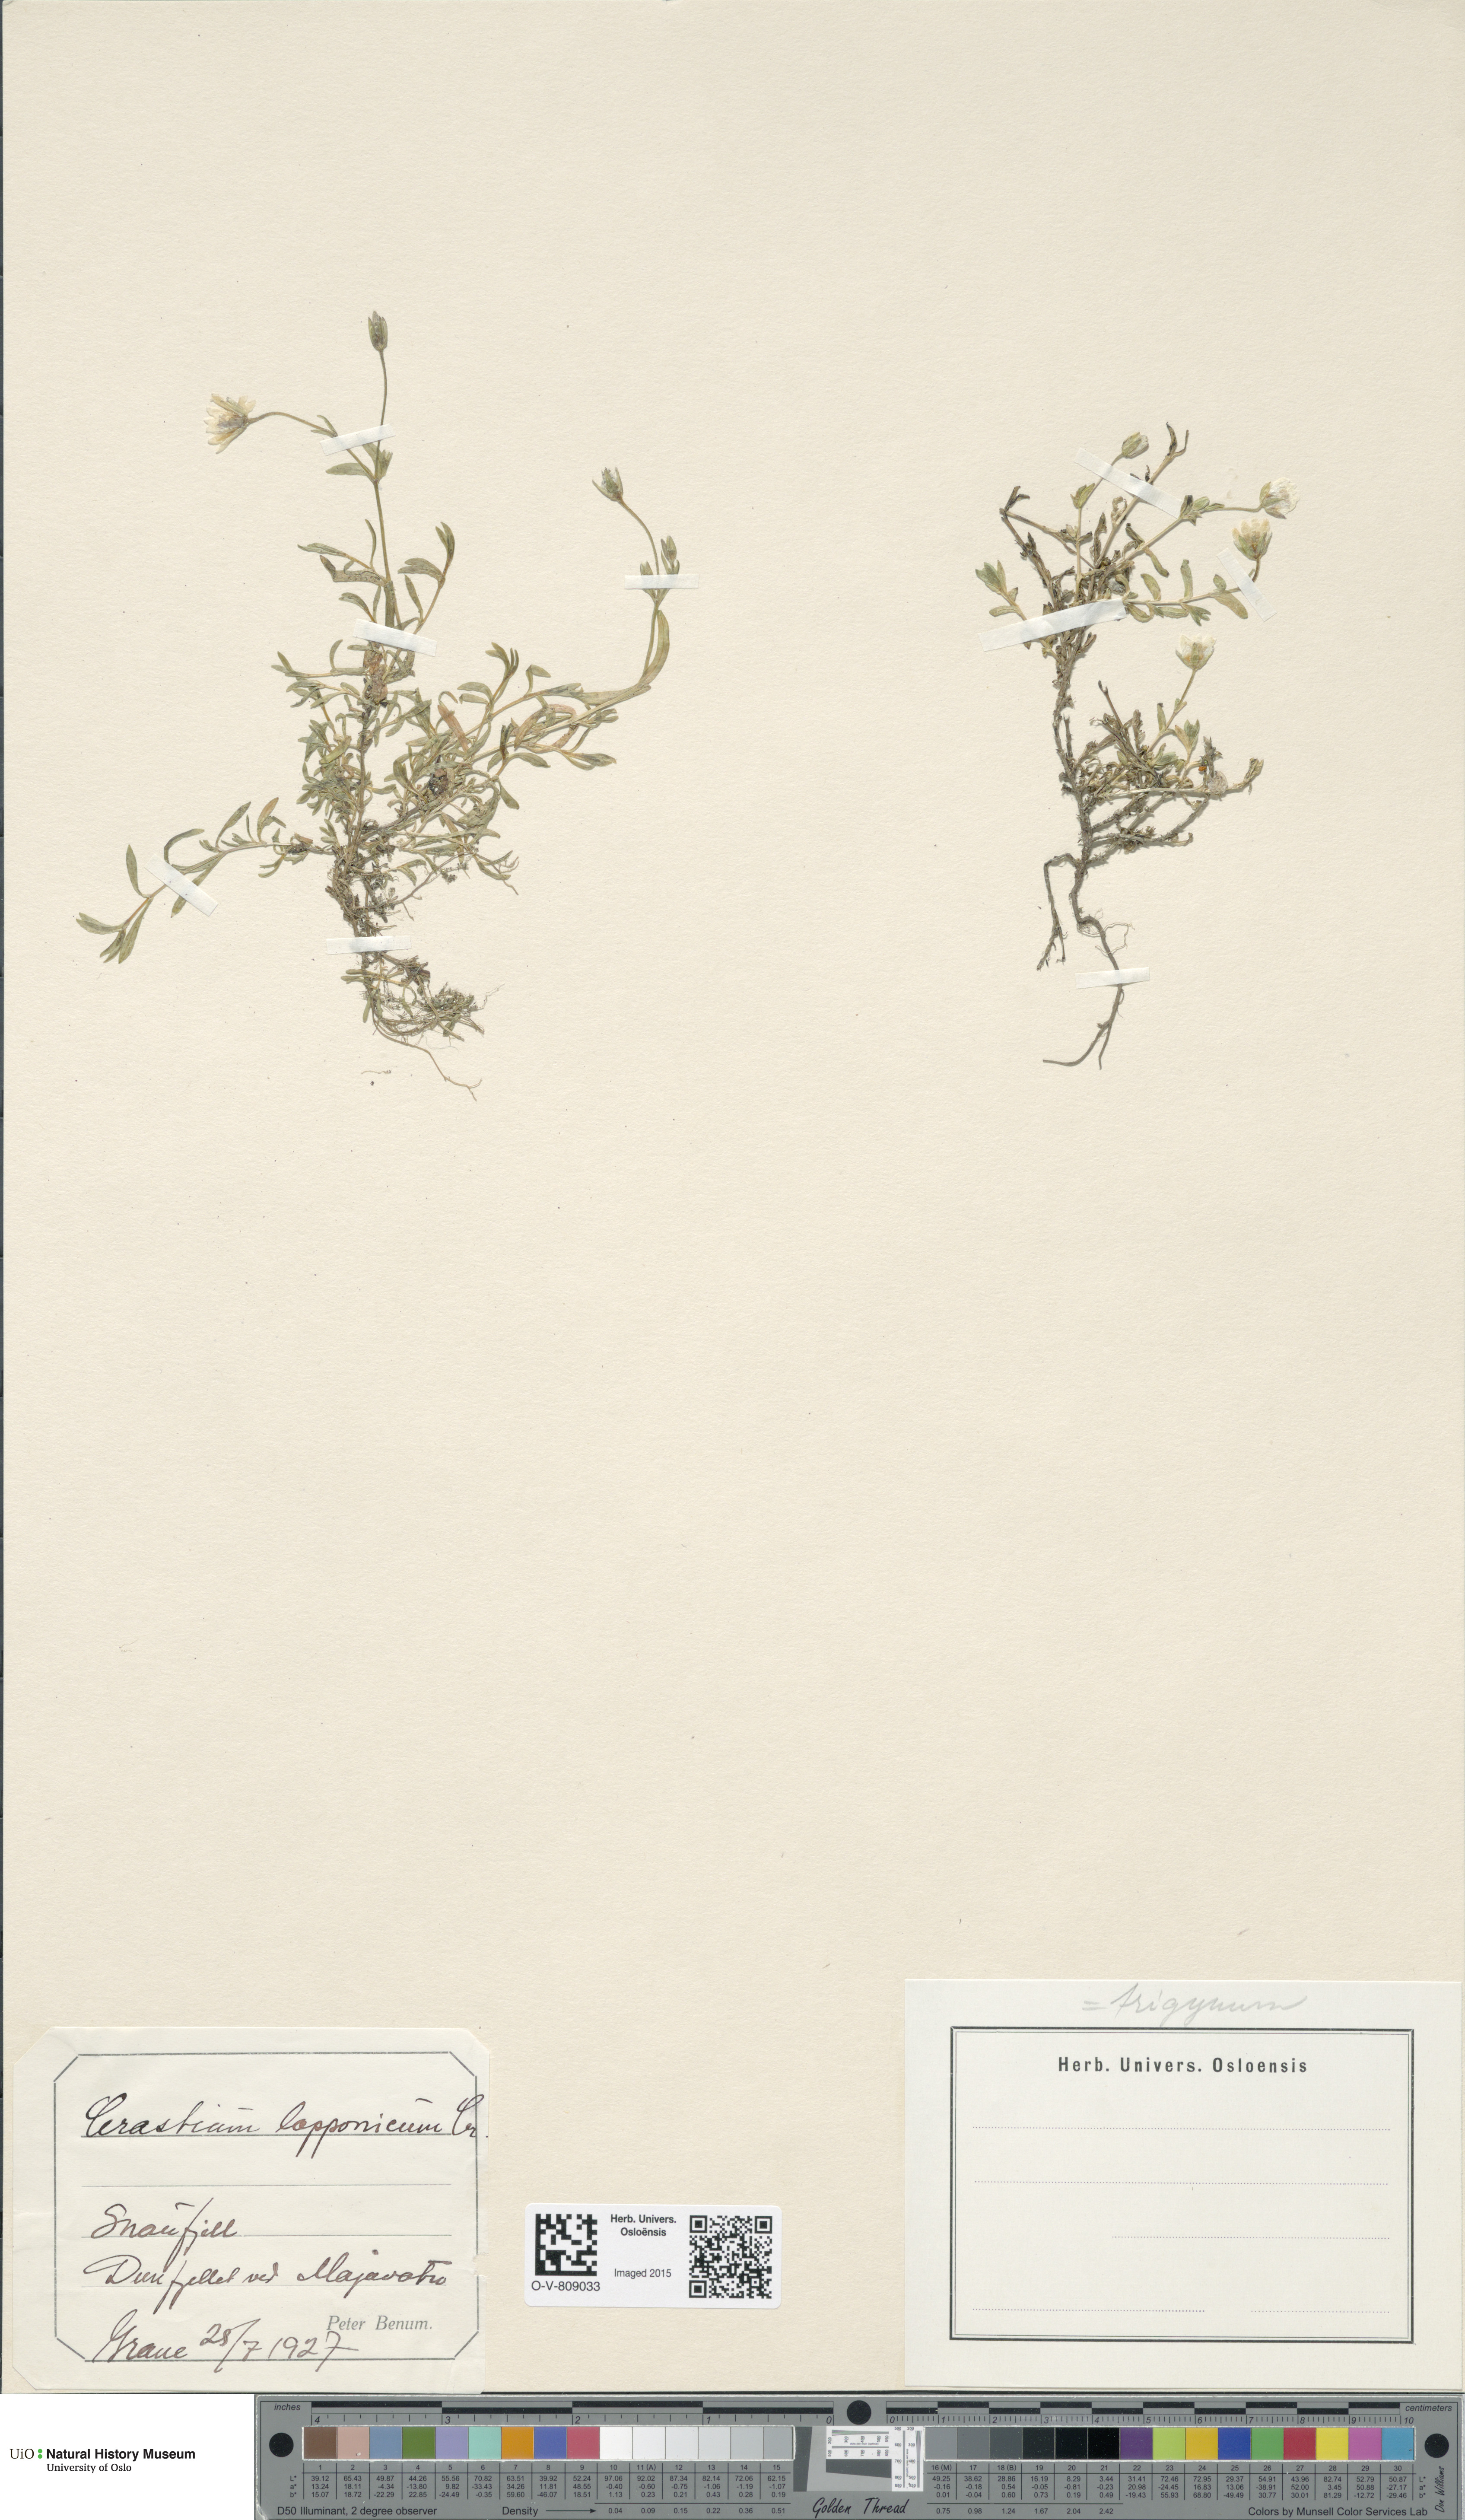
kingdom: Plantae
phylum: Tracheophyta
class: Magnoliopsida
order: Caryophyllales
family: Caryophyllaceae
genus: Dichodon
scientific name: Dichodon cerastoides
